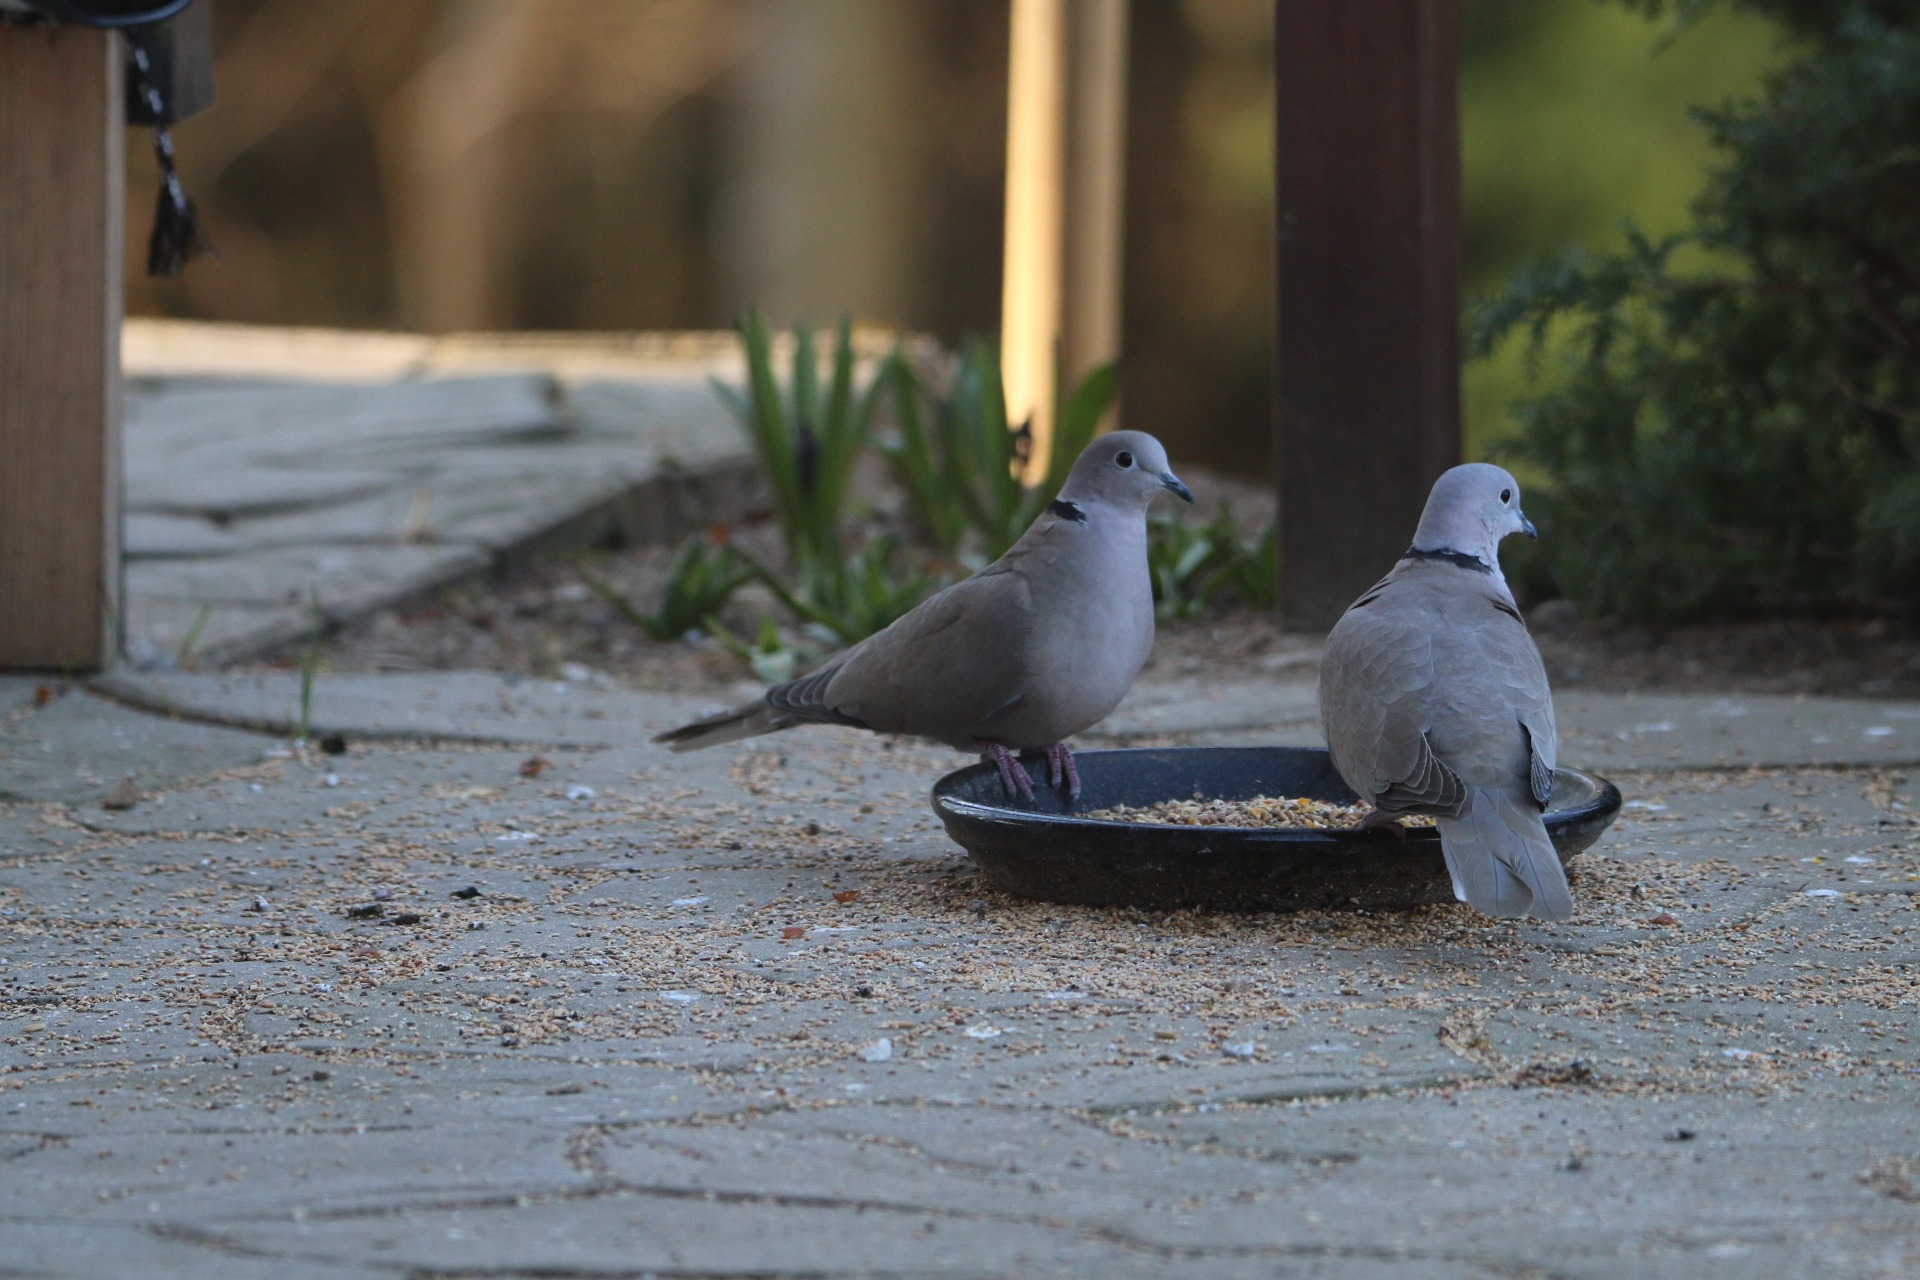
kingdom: Animalia
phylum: Chordata
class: Aves
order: Columbiformes
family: Columbidae
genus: Streptopelia
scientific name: Streptopelia decaocto
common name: Tyrkerdue
